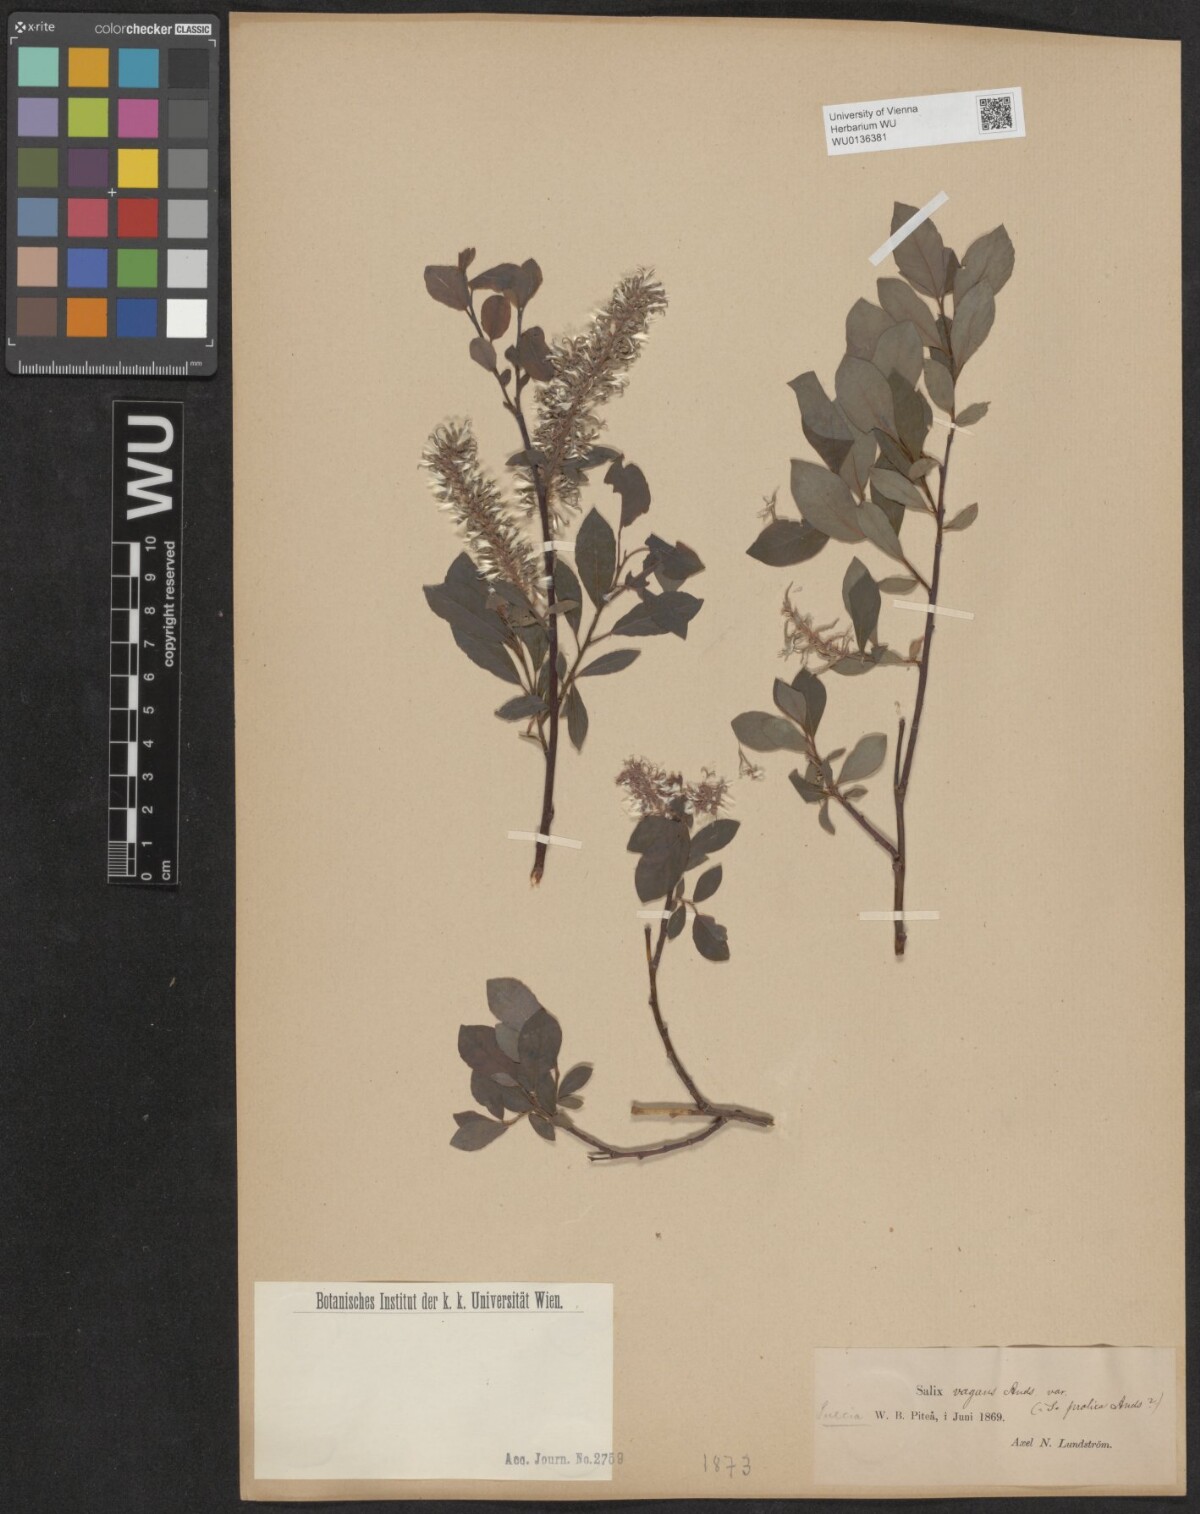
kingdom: Plantae
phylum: Tracheophyta
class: Magnoliopsida
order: Malpighiales
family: Salicaceae
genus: Salix
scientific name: Salix lanata
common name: Woolly willow
